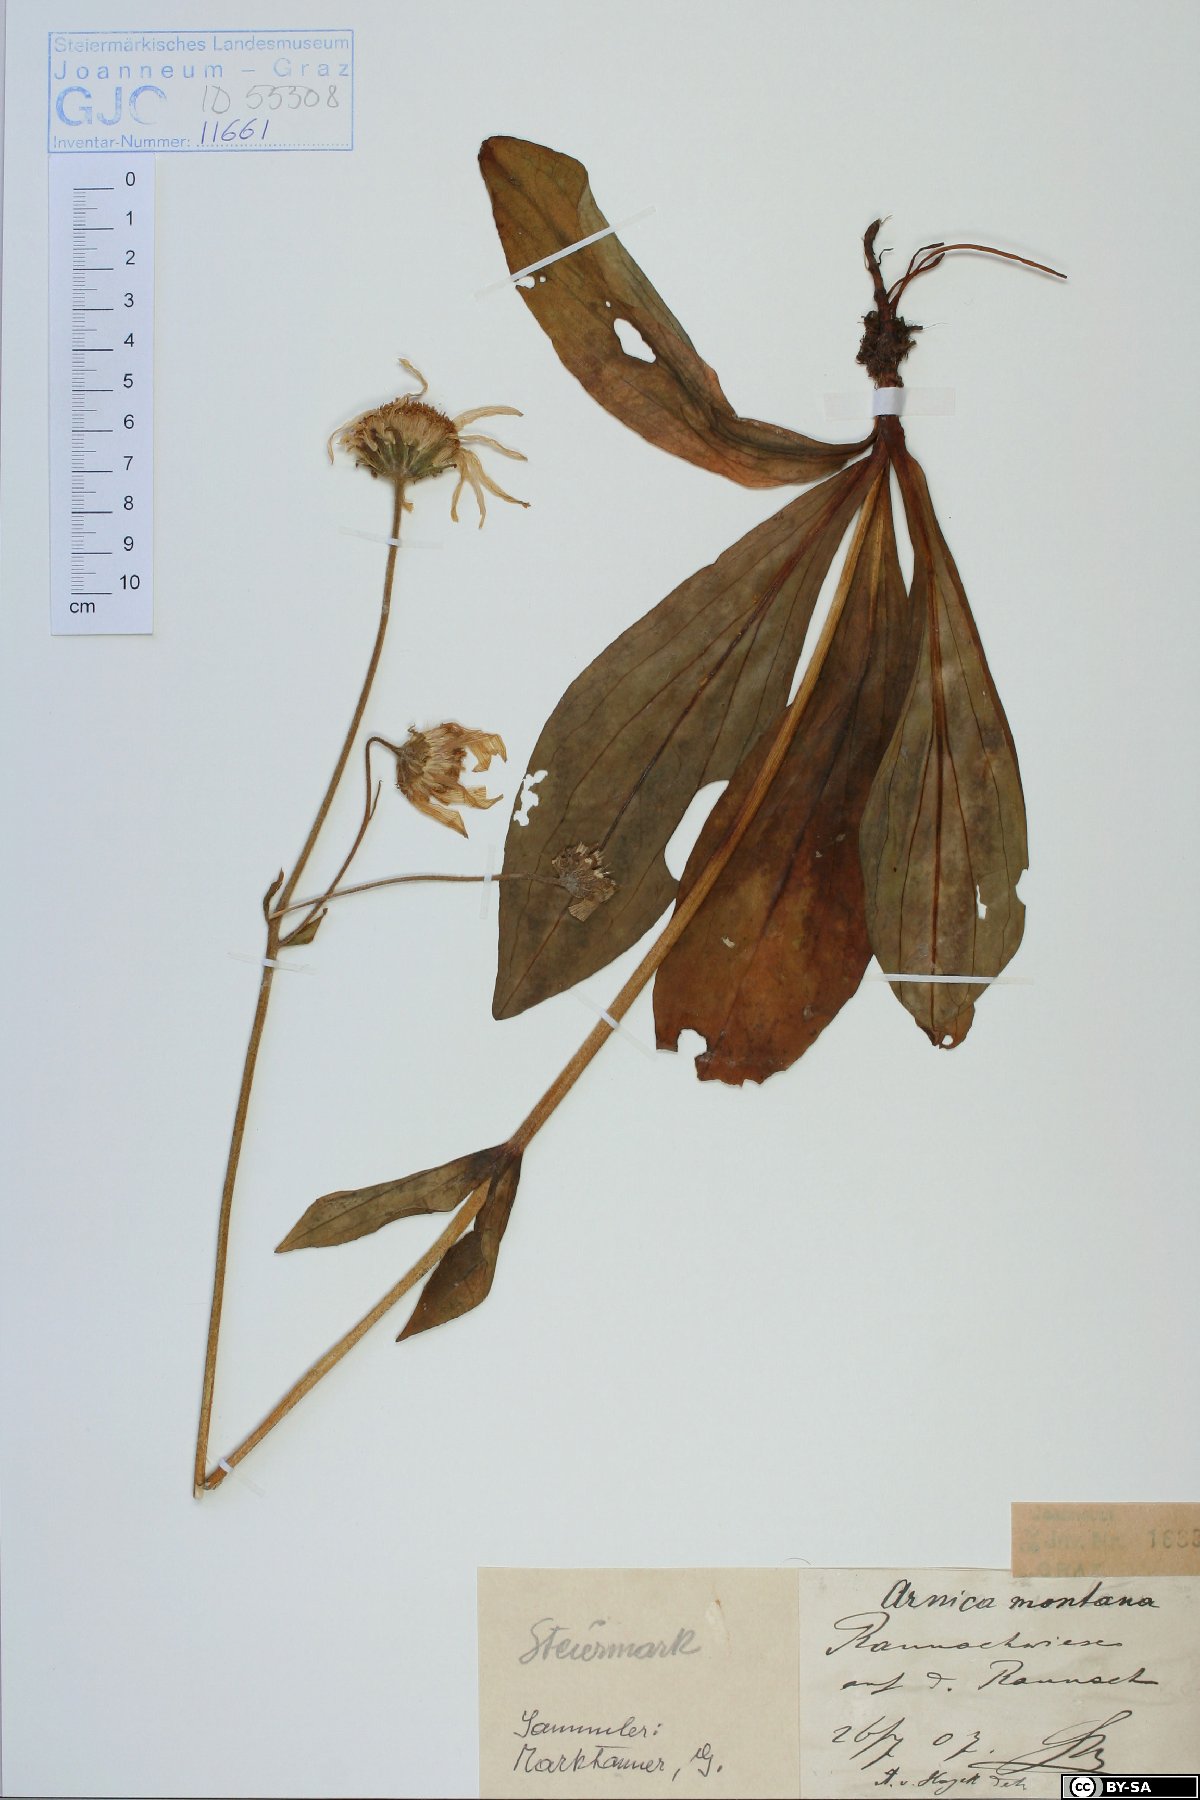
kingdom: Plantae
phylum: Tracheophyta
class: Magnoliopsida
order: Asterales
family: Asteraceae
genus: Arnica
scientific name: Arnica montana
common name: Leopard's bane
